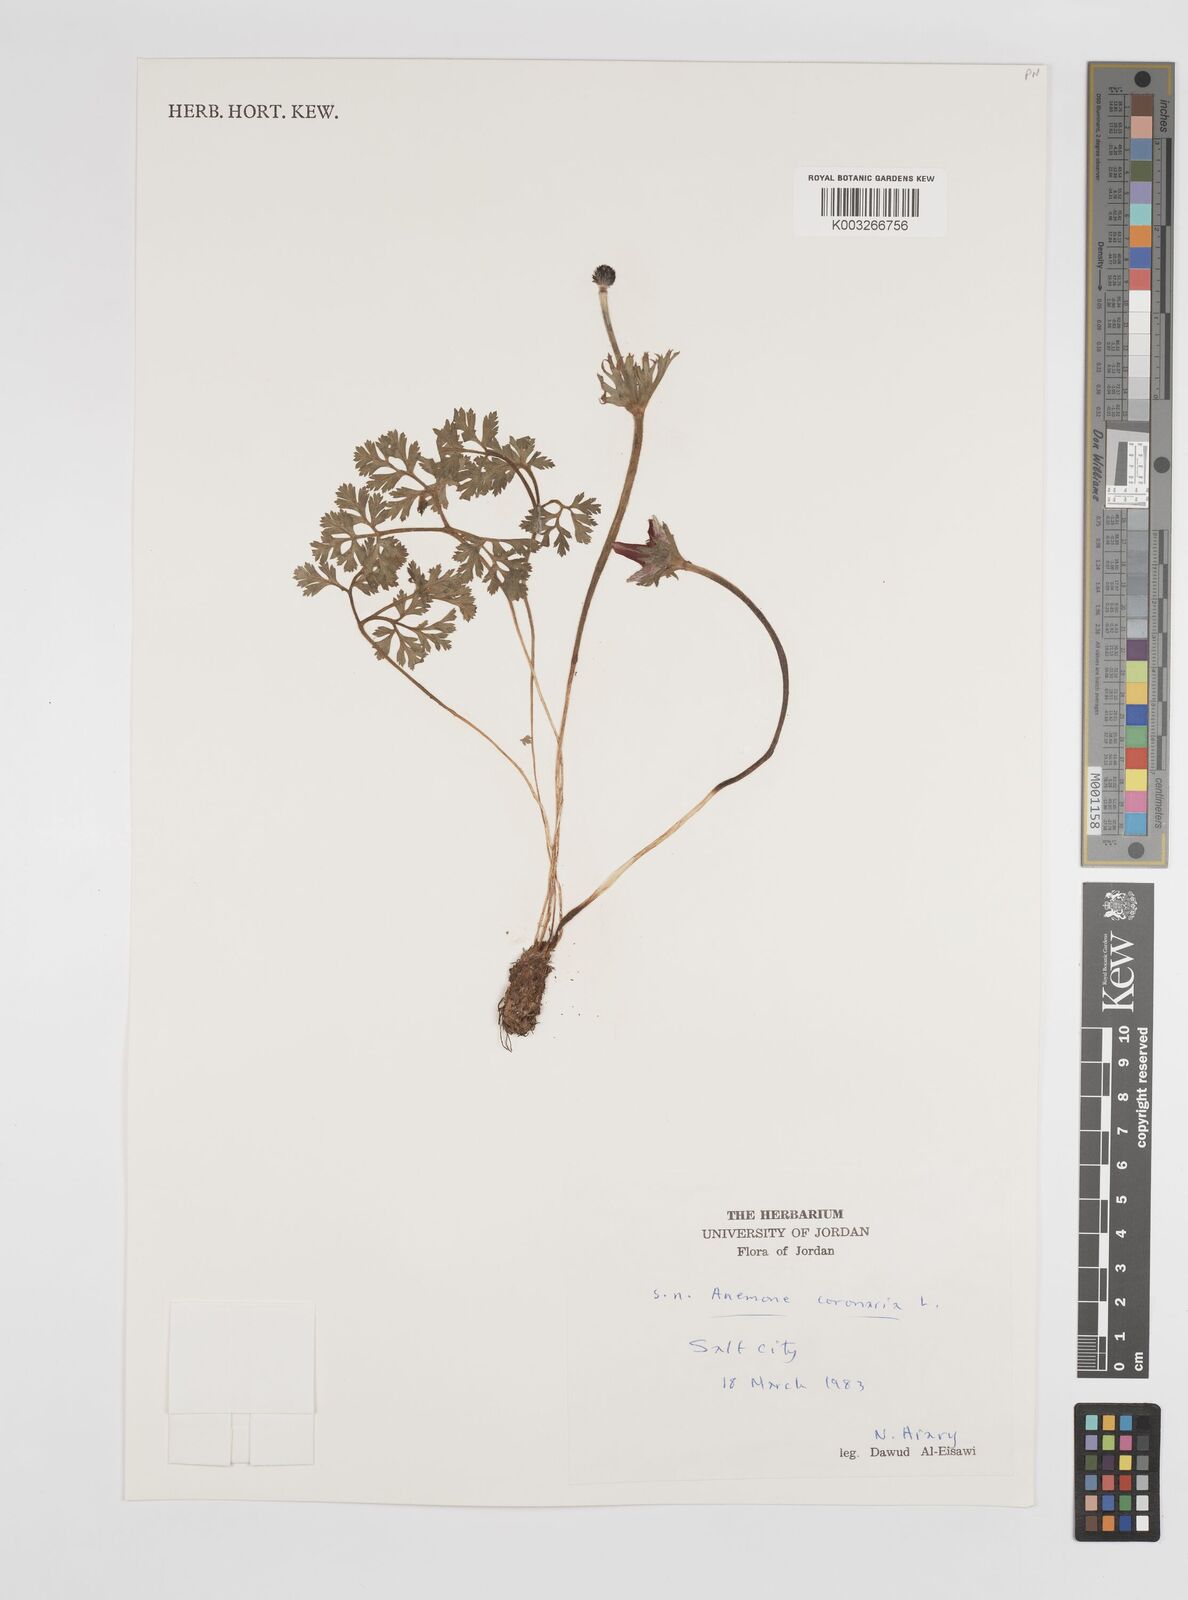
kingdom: Plantae
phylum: Tracheophyta
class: Magnoliopsida
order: Ranunculales
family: Ranunculaceae
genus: Anemone
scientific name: Anemone coronaria
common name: Poppy anemone
